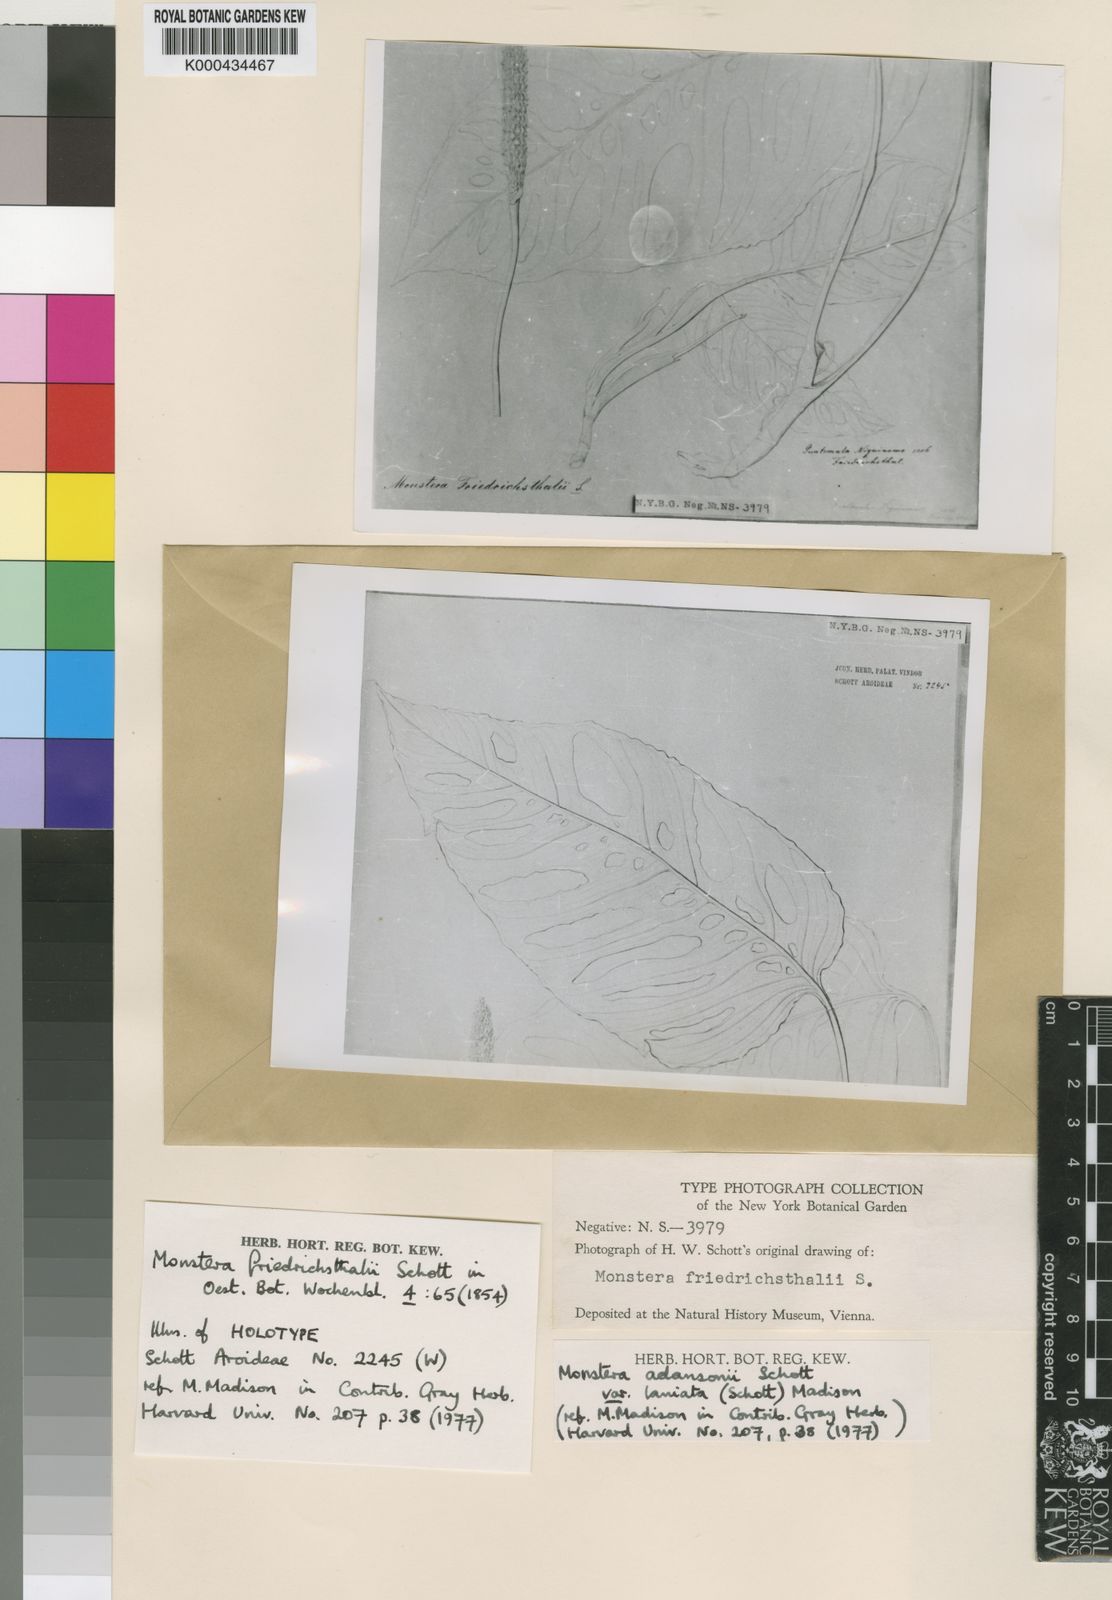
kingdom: Plantae
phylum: Tracheophyta
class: Liliopsida
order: Alismatales
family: Araceae
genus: Monstera
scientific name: Monstera adansonii
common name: Tarovine
